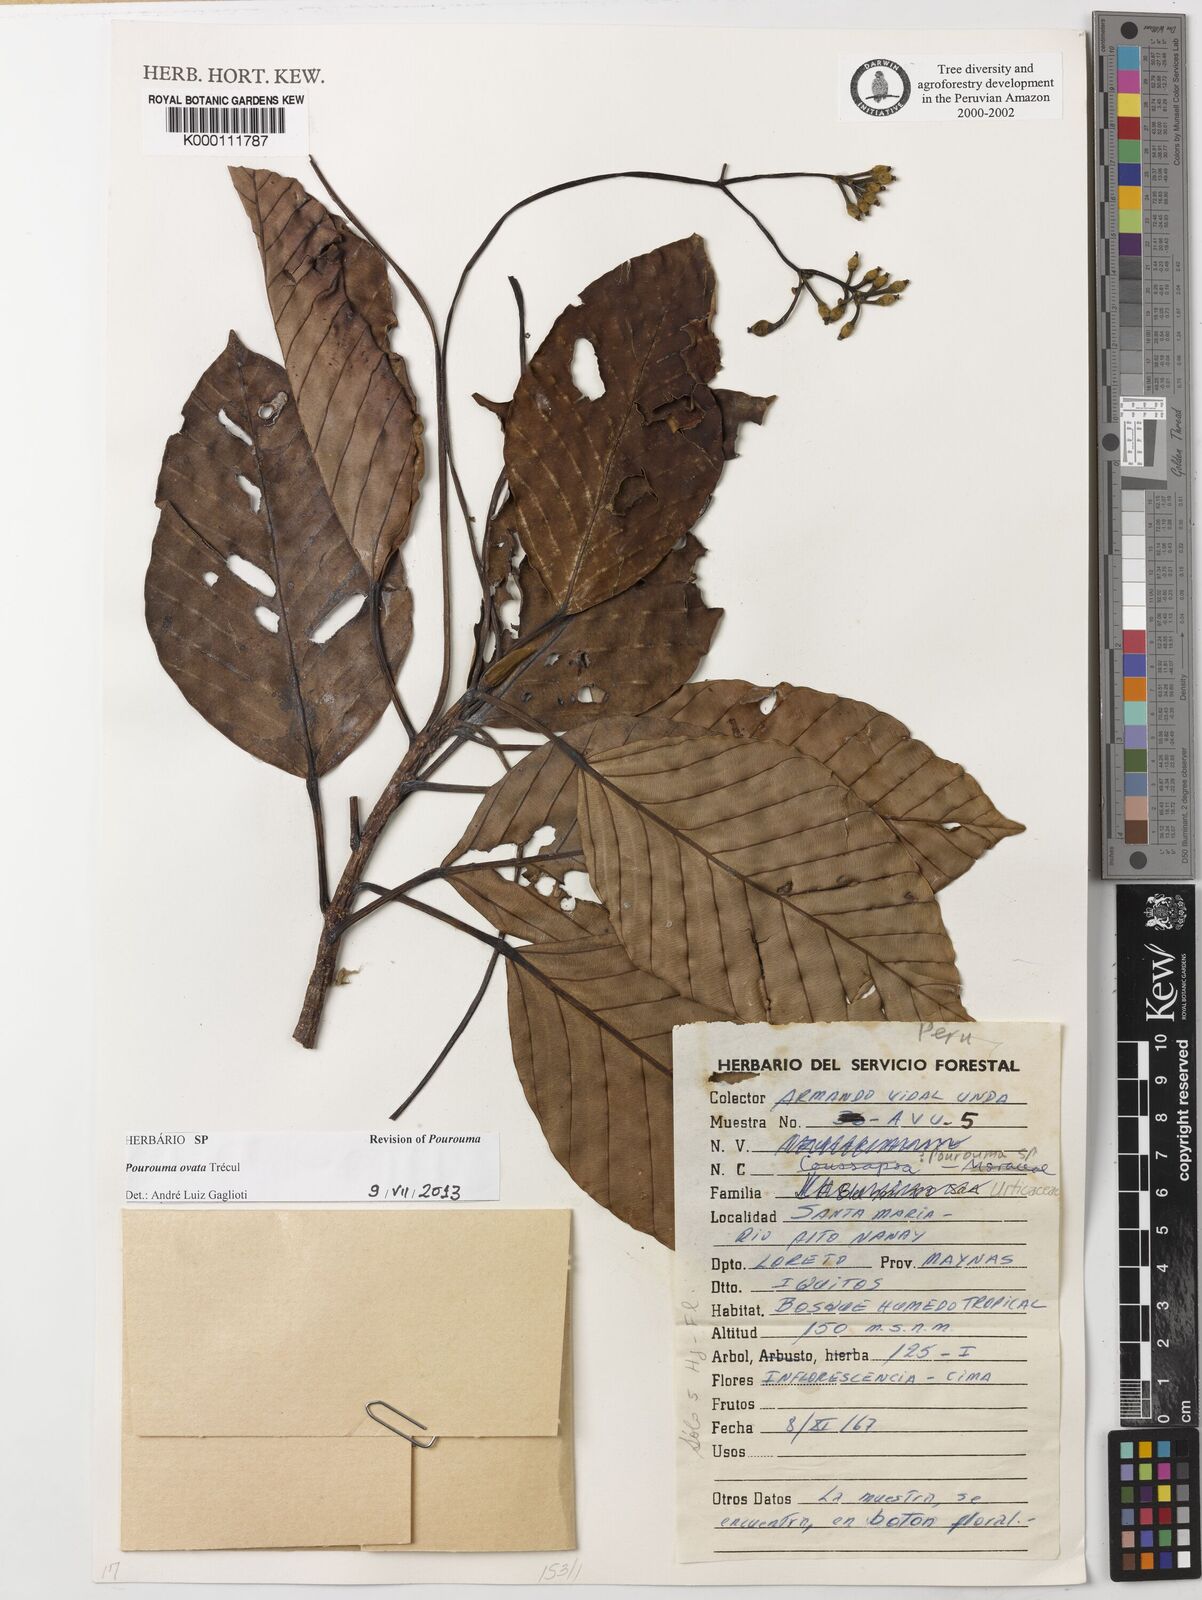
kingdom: Plantae
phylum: Tracheophyta
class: Magnoliopsida
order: Rosales
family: Urticaceae
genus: Pourouma
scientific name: Pourouma
